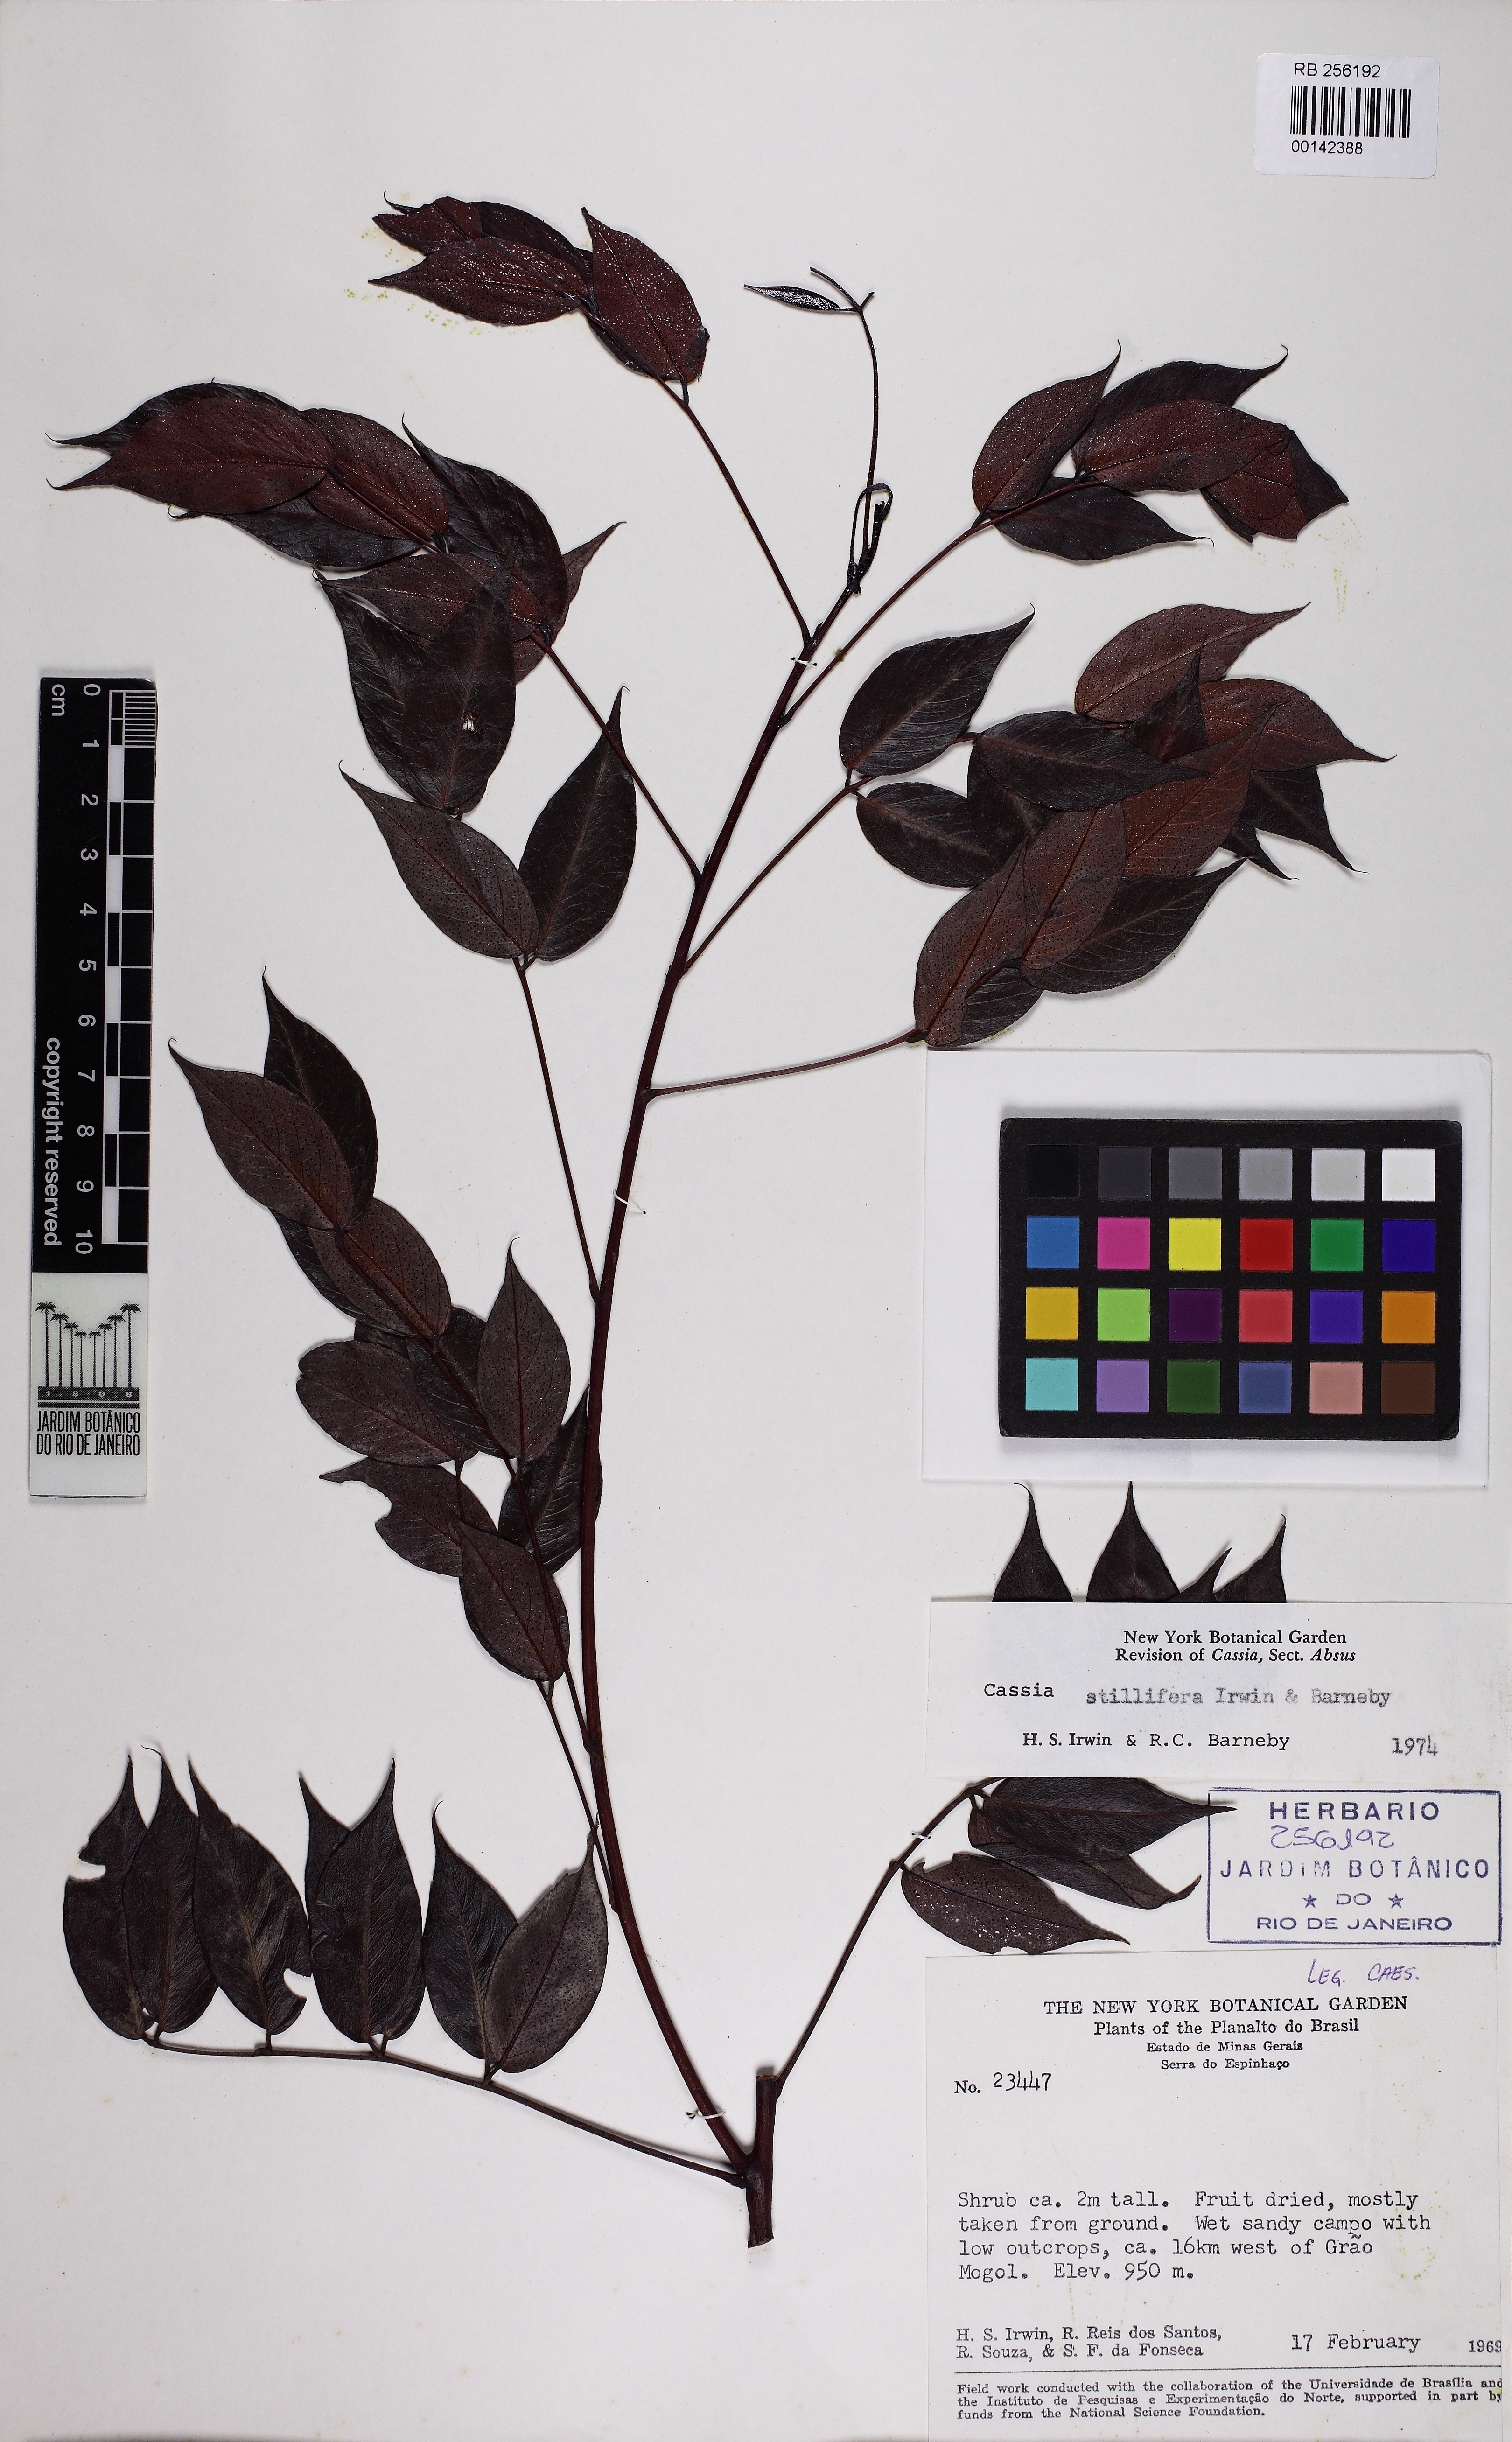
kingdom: Plantae
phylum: Tracheophyta
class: Magnoliopsida
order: Fabales
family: Fabaceae
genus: Chamaecrista
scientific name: Chamaecrista stillifera
